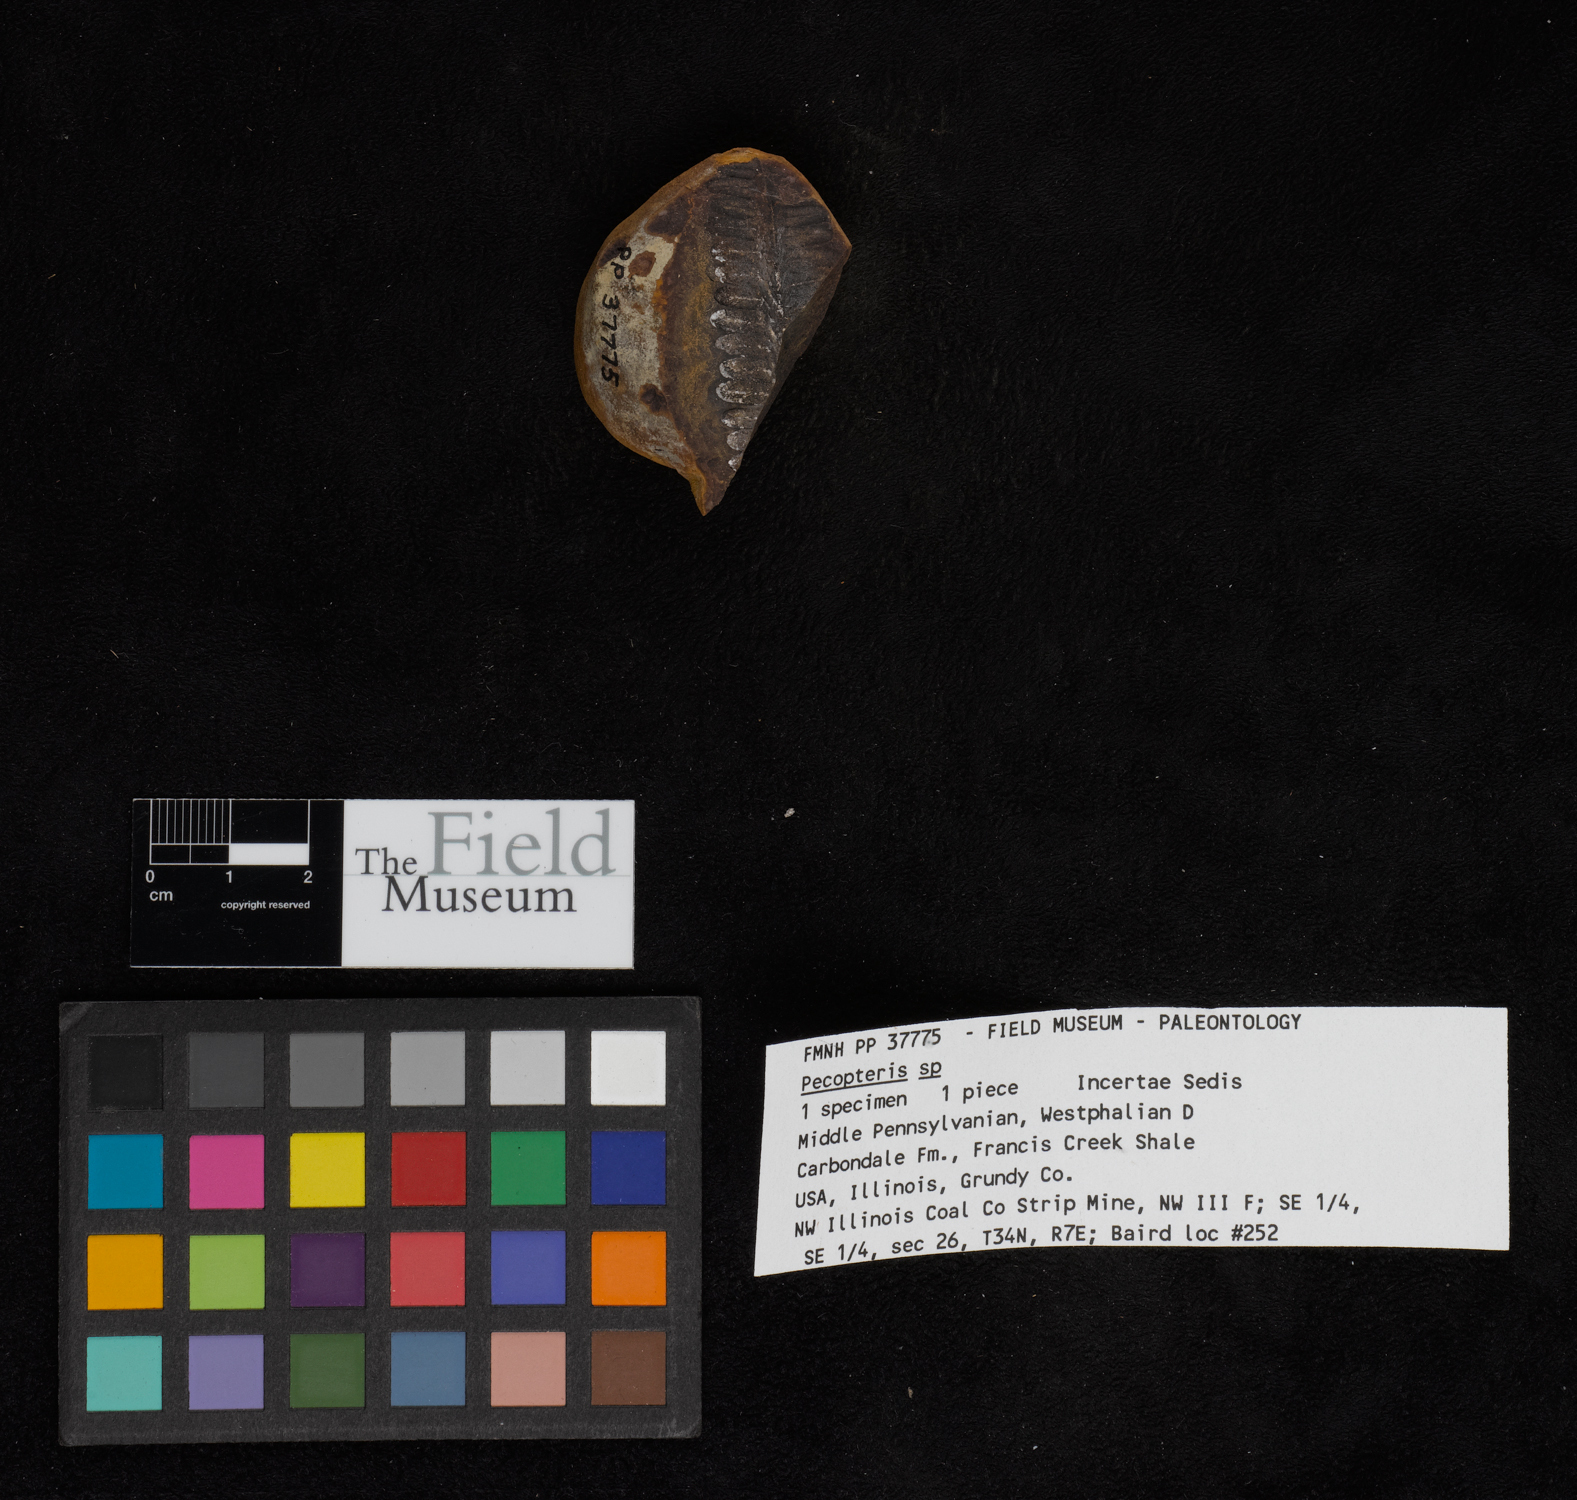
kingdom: Plantae
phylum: Tracheophyta
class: Polypodiopsida
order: Marattiales
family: Asterothecaceae
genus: Pecopteris
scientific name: Pecopteris
